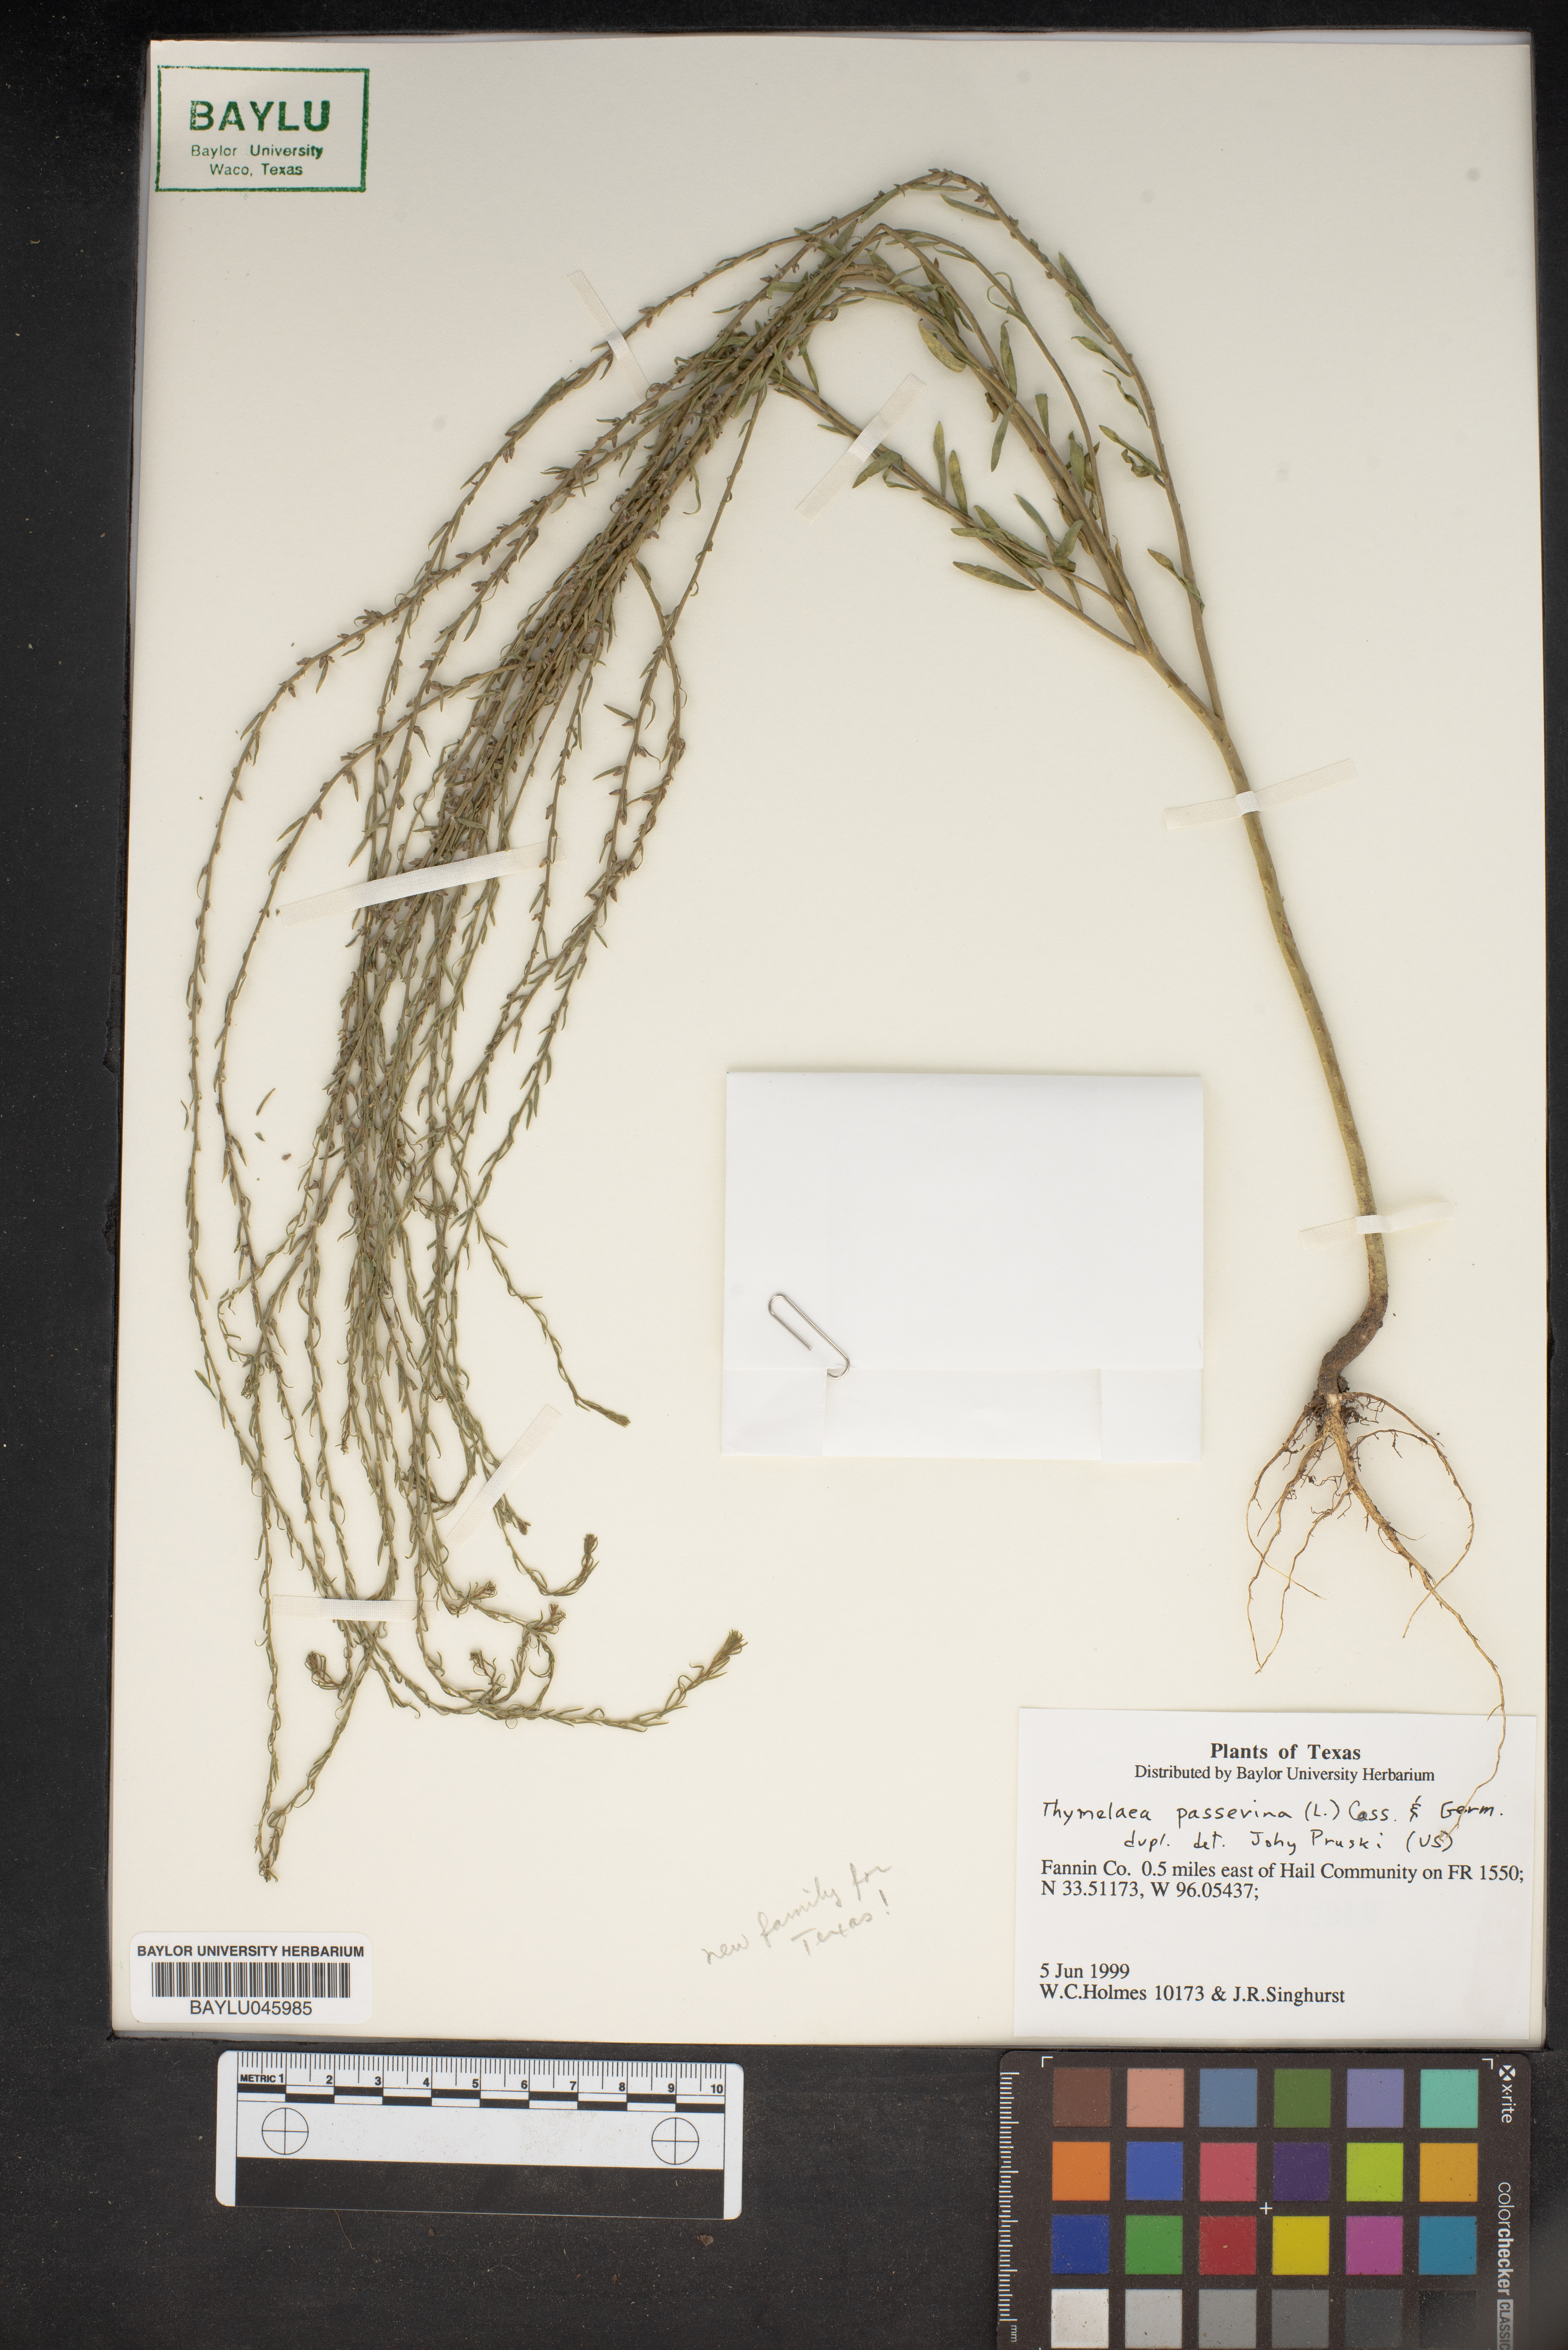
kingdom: Plantae
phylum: Tracheophyta
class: Magnoliopsida
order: Malvales
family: Thymelaeaceae
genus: Thymelaea
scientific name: Thymelaea passerina
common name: Annual thymelaea
